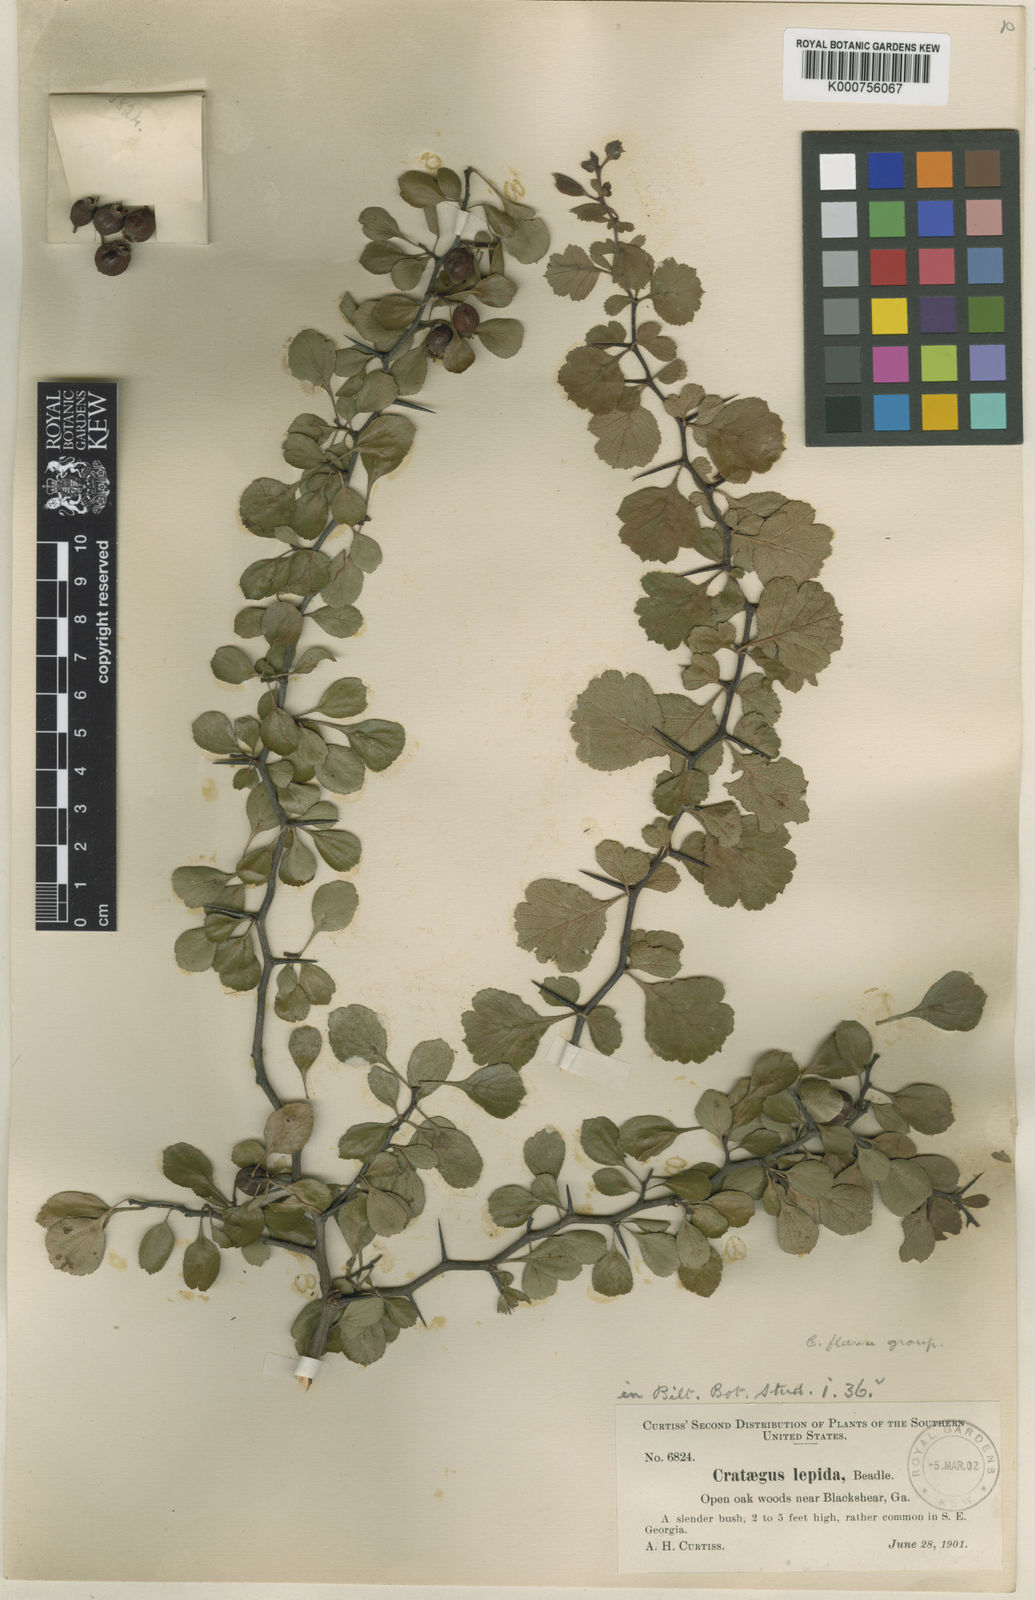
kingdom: Plantae
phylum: Tracheophyta
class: Magnoliopsida
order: Rosales
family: Rosaceae
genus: Crataegus
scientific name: Crataegus munda
